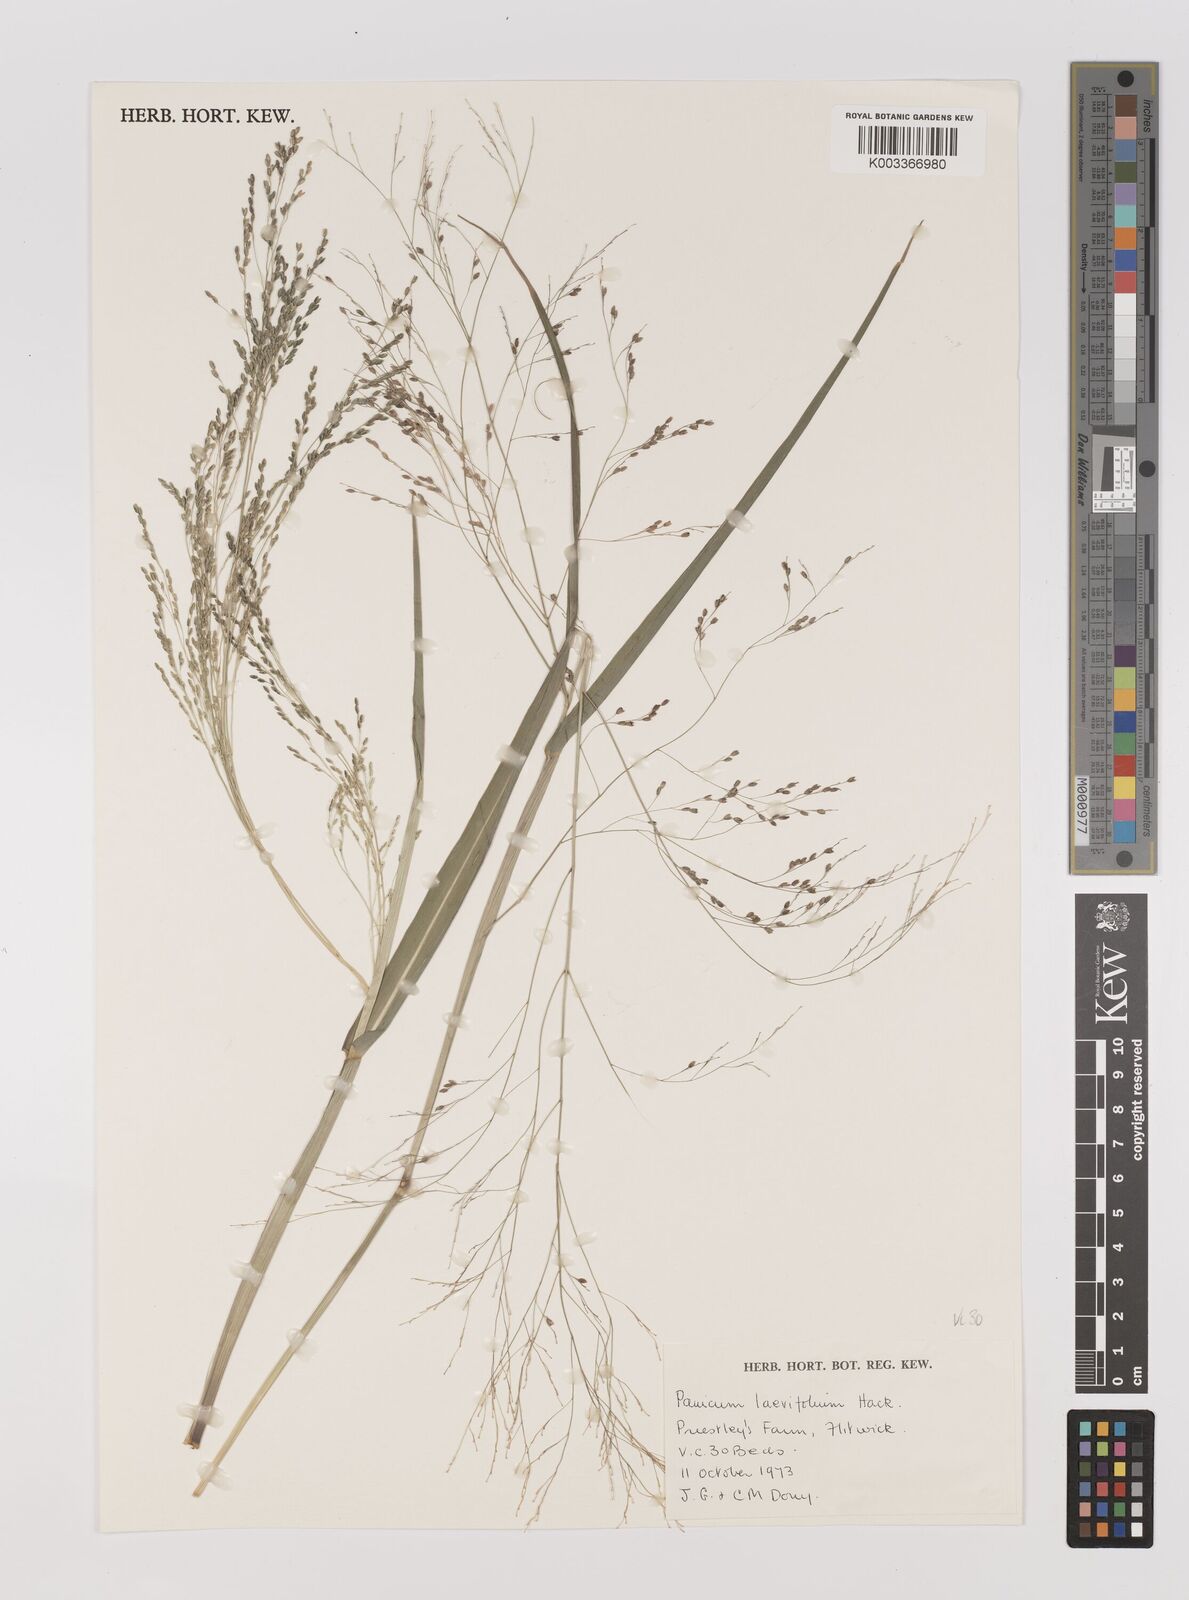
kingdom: Plantae
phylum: Tracheophyta
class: Liliopsida
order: Poales
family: Poaceae
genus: Panicum
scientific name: Panicum schinzii
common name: Sweet grass
